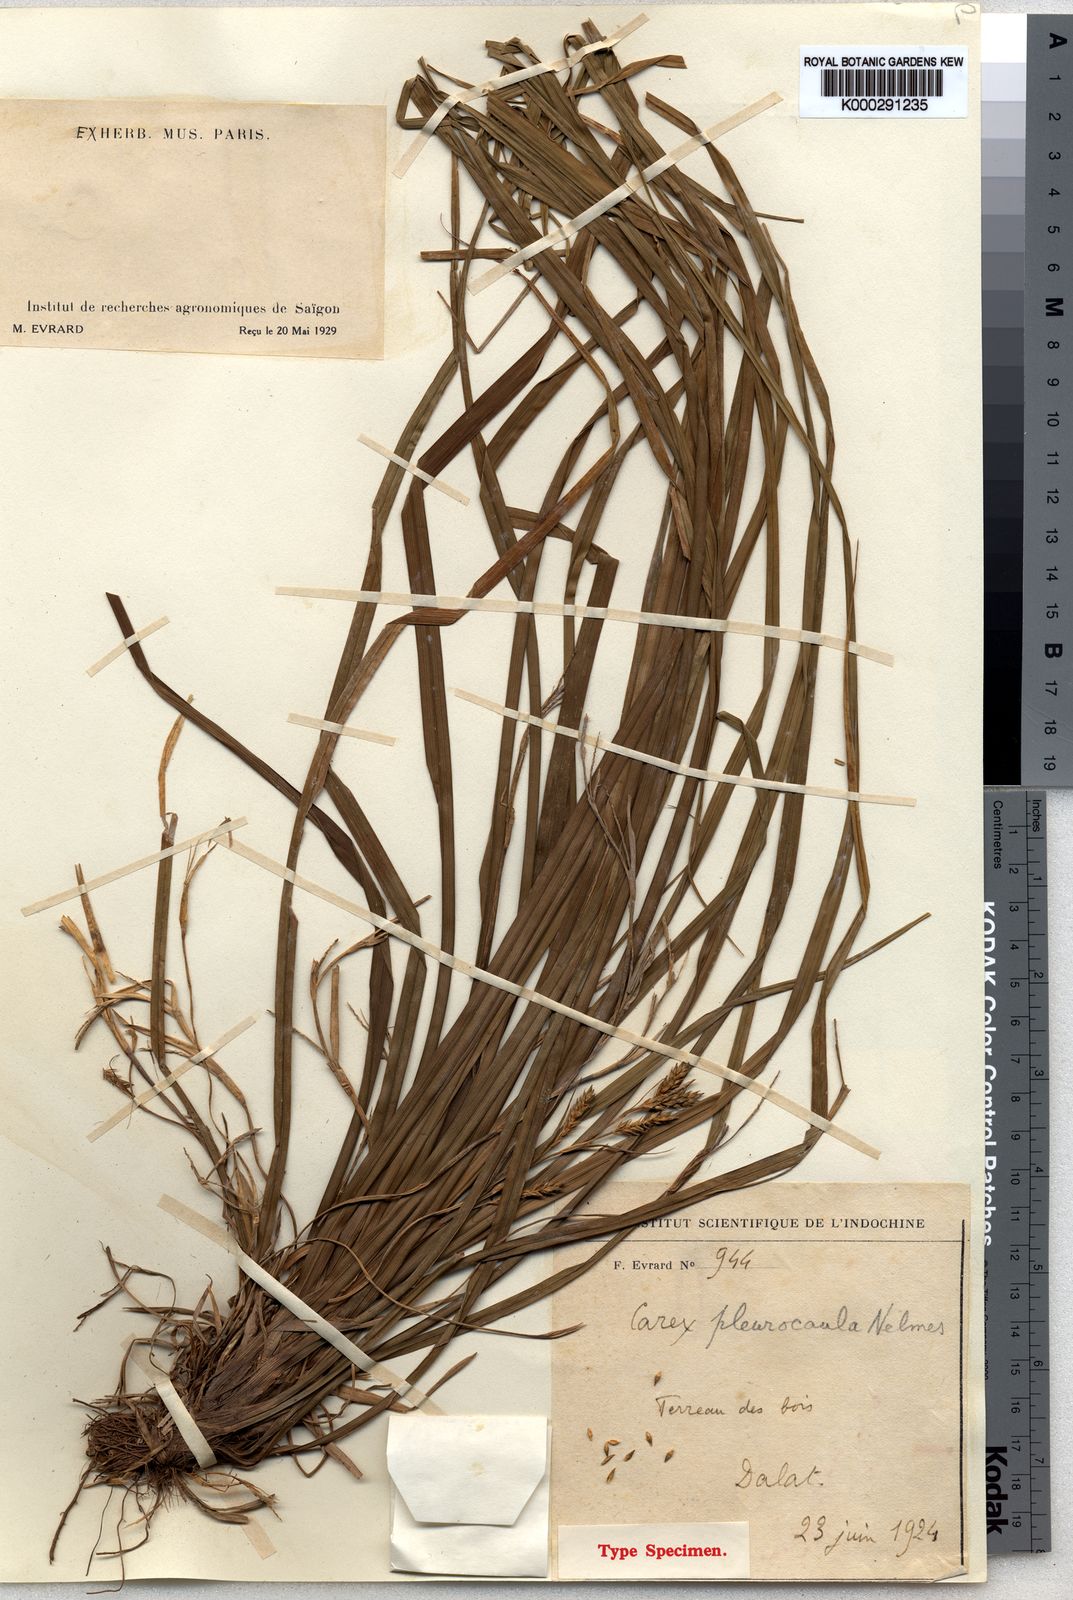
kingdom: Plantae
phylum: Tracheophyta
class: Liliopsida
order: Poales
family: Cyperaceae
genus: Carex
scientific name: Carex pleurocaula
